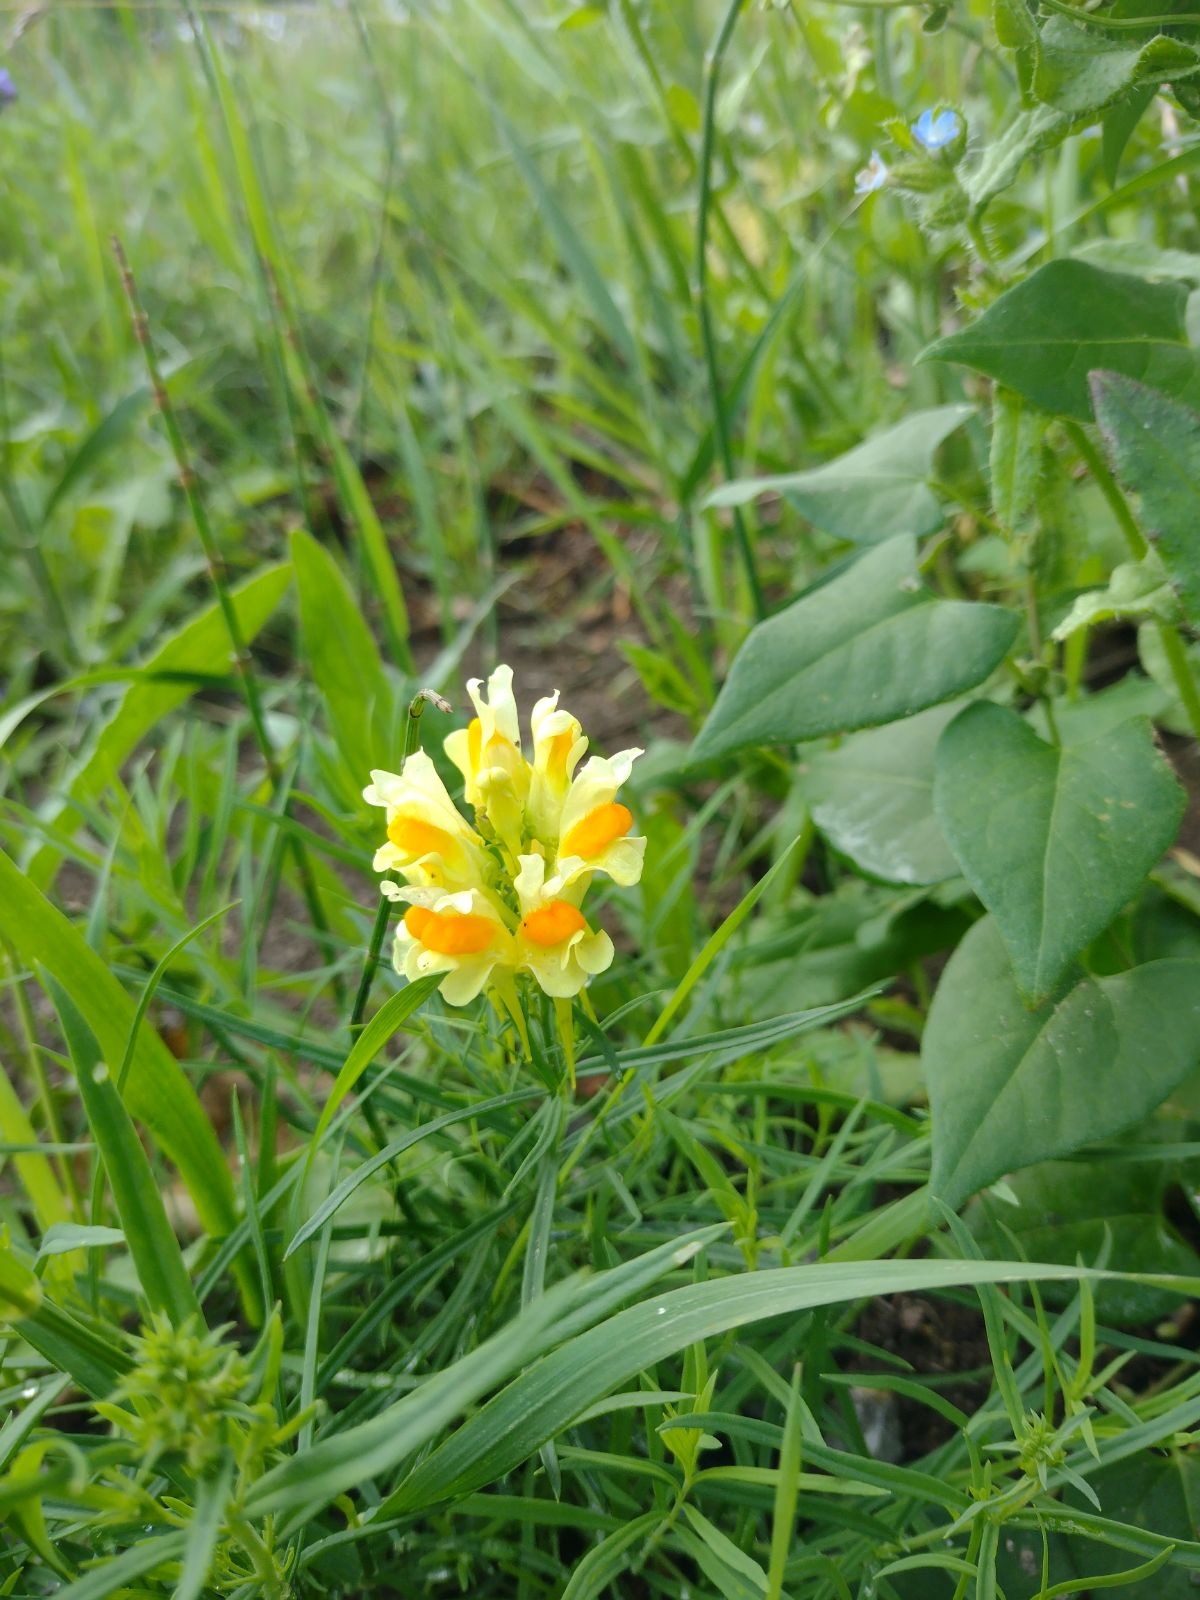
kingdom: Plantae
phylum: Tracheophyta
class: Magnoliopsida
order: Lamiales
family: Plantaginaceae
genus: Linaria
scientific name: Linaria vulgaris
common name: Almindelig torskemund
